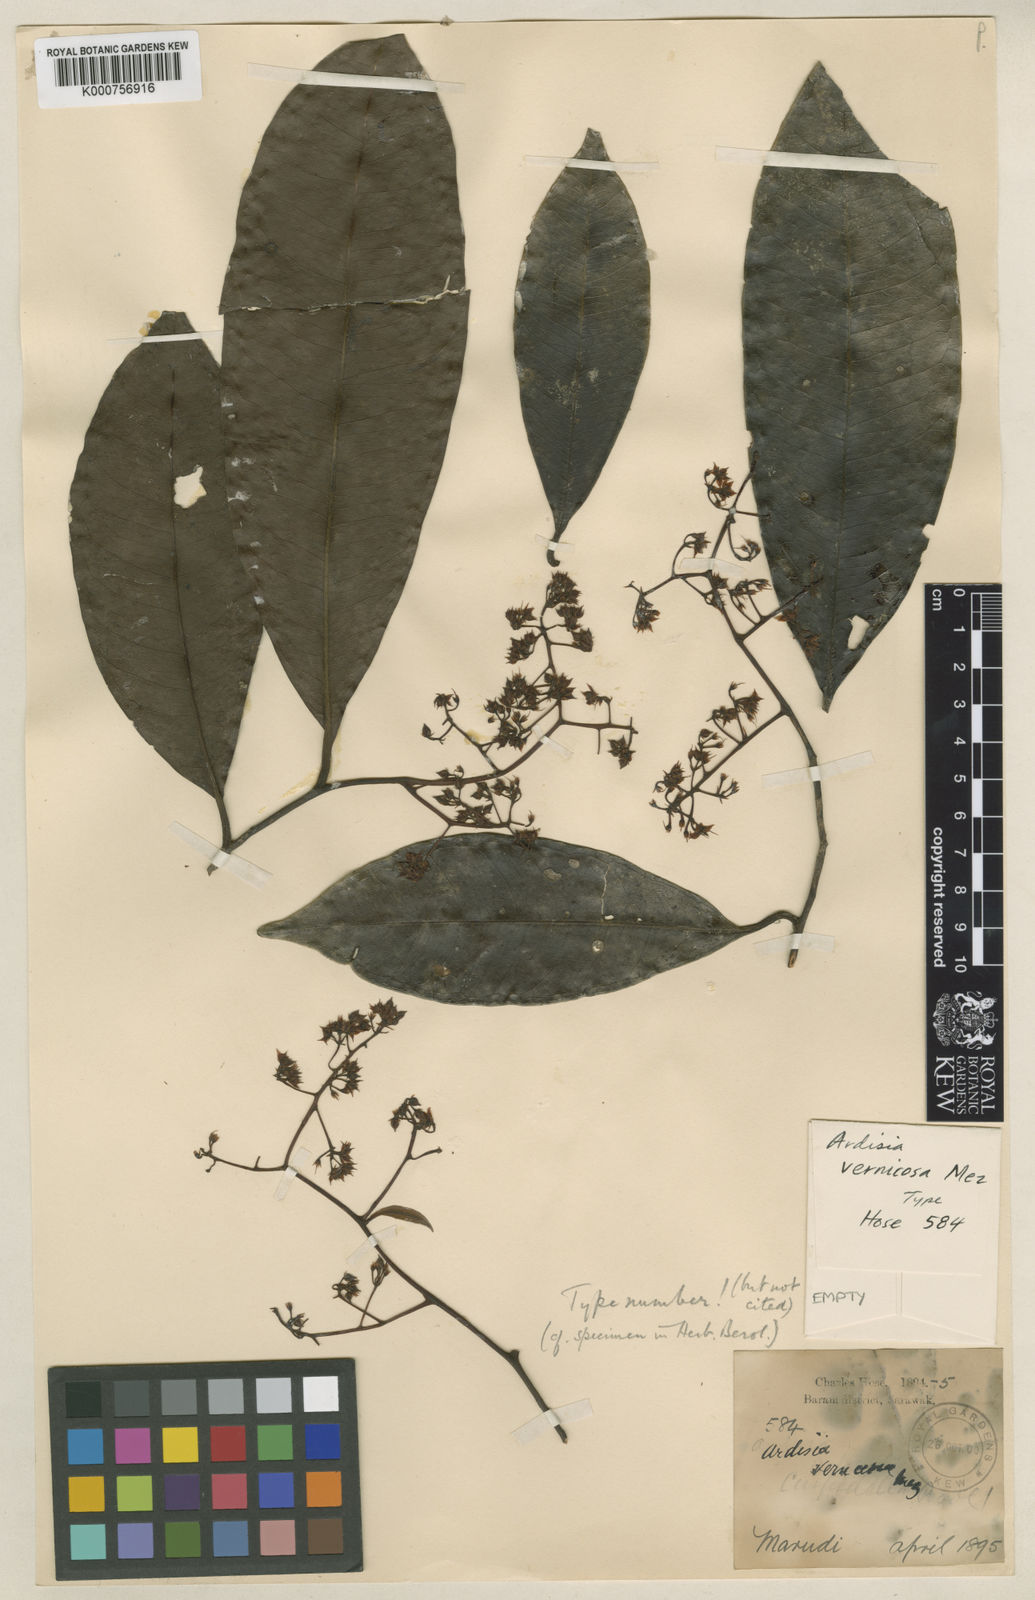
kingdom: Plantae
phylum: Tracheophyta
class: Magnoliopsida
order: Ericales
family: Primulaceae
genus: Ardisia
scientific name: Ardisia vernicosa
